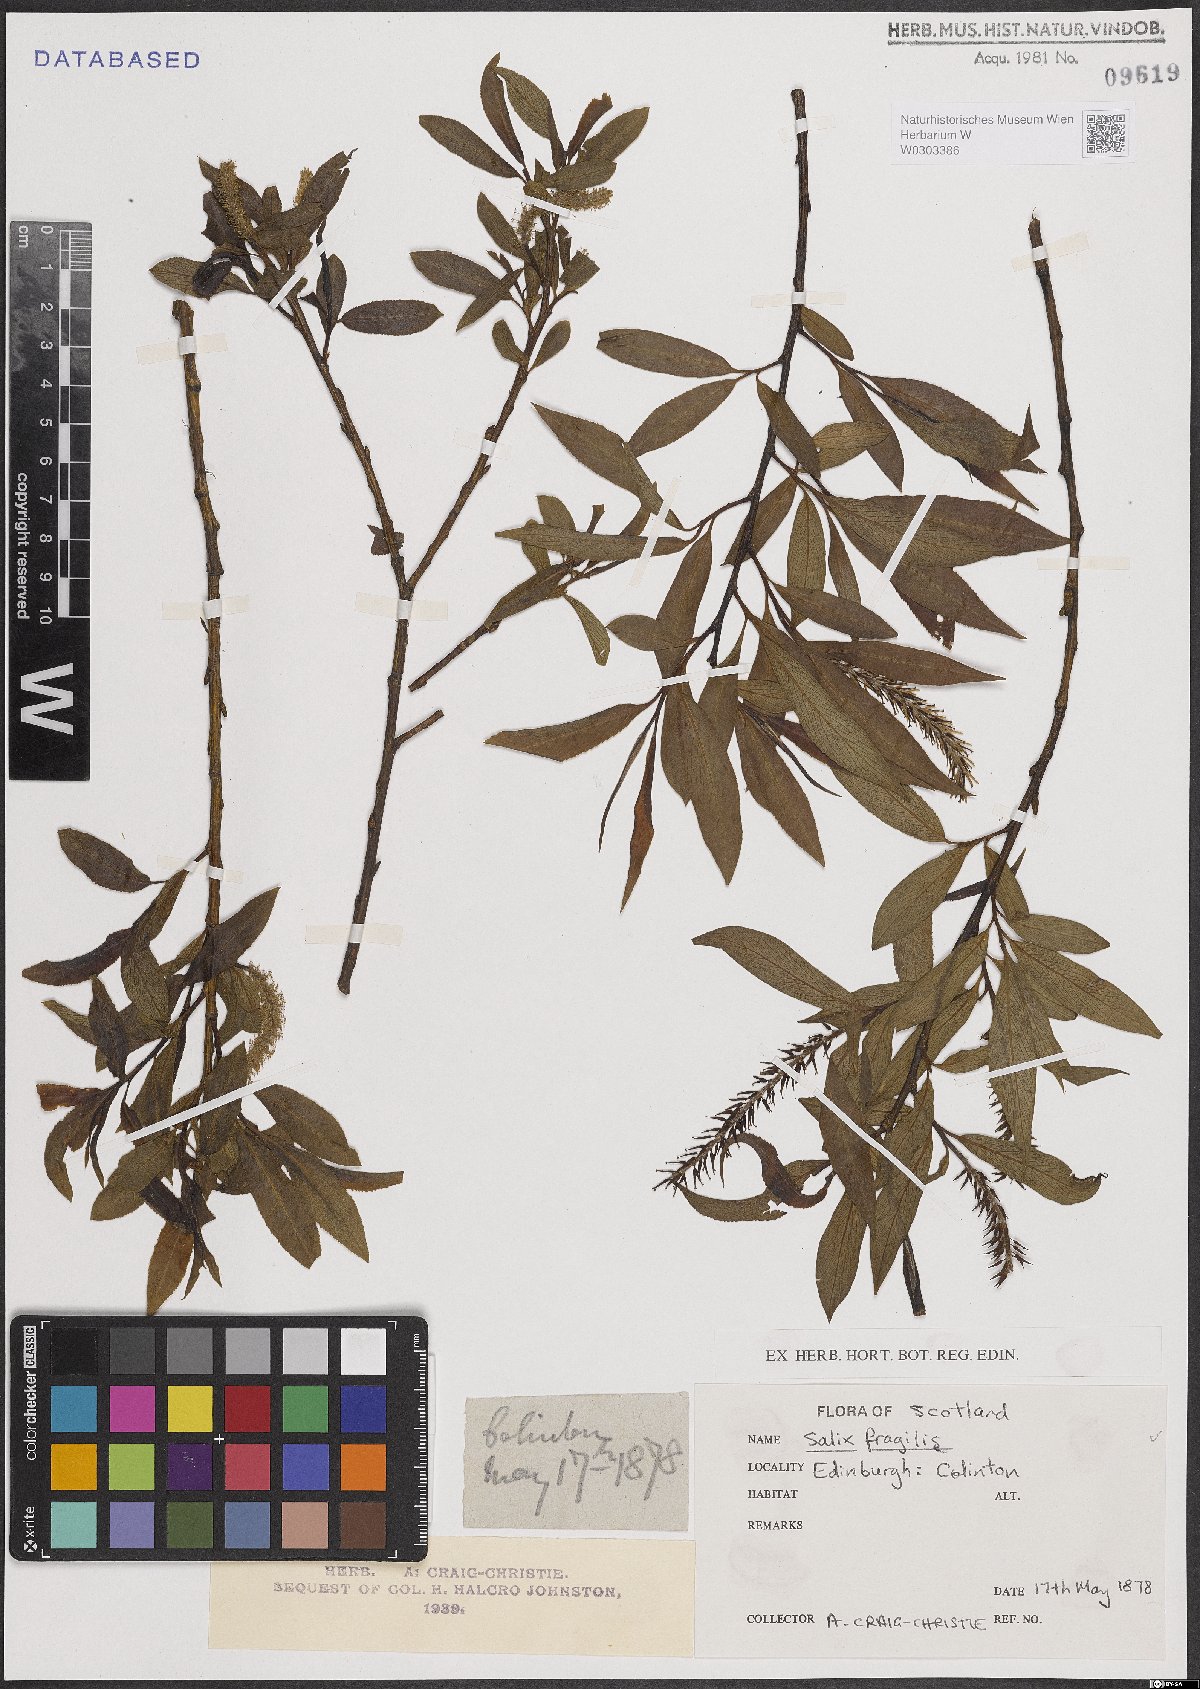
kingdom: Plantae
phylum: Tracheophyta
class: Magnoliopsida
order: Malpighiales
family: Salicaceae
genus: Salix
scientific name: Salix fragilis
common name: Crack willow
